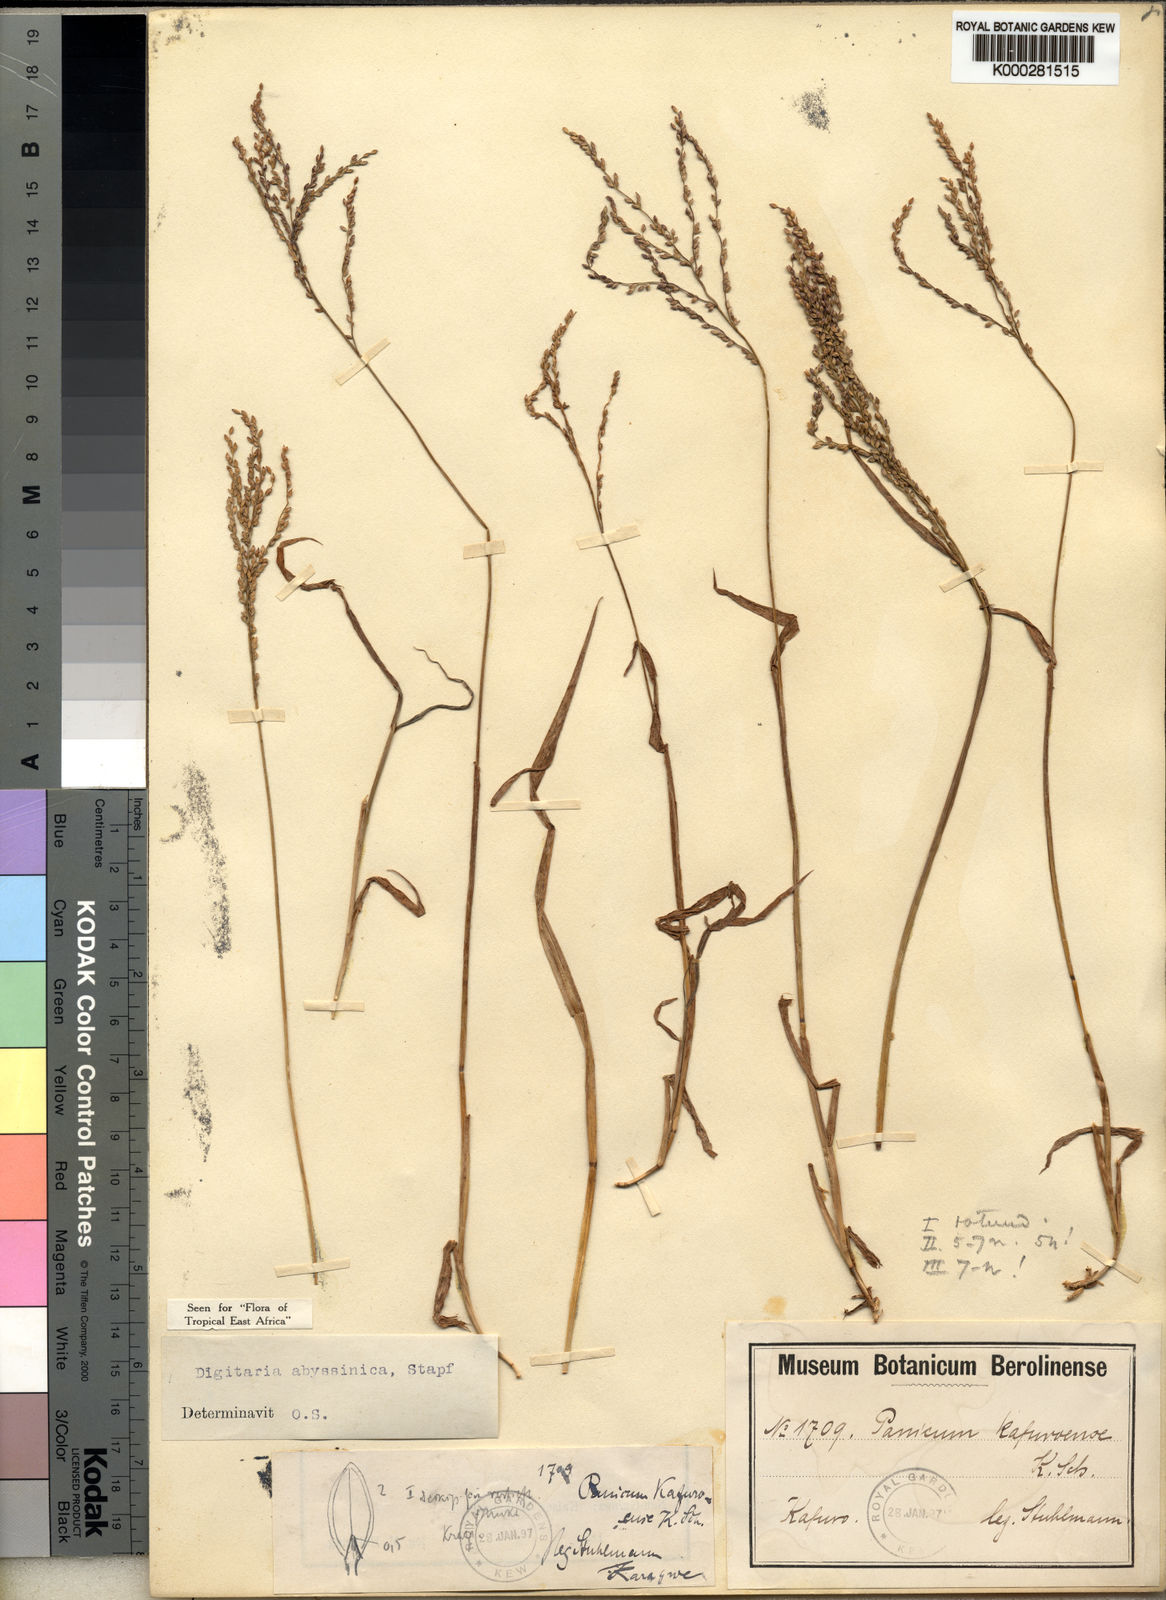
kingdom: Plantae
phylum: Tracheophyta
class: Liliopsida
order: Poales
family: Poaceae
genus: Digitaria
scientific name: Digitaria abyssinica
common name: African couchgrass
